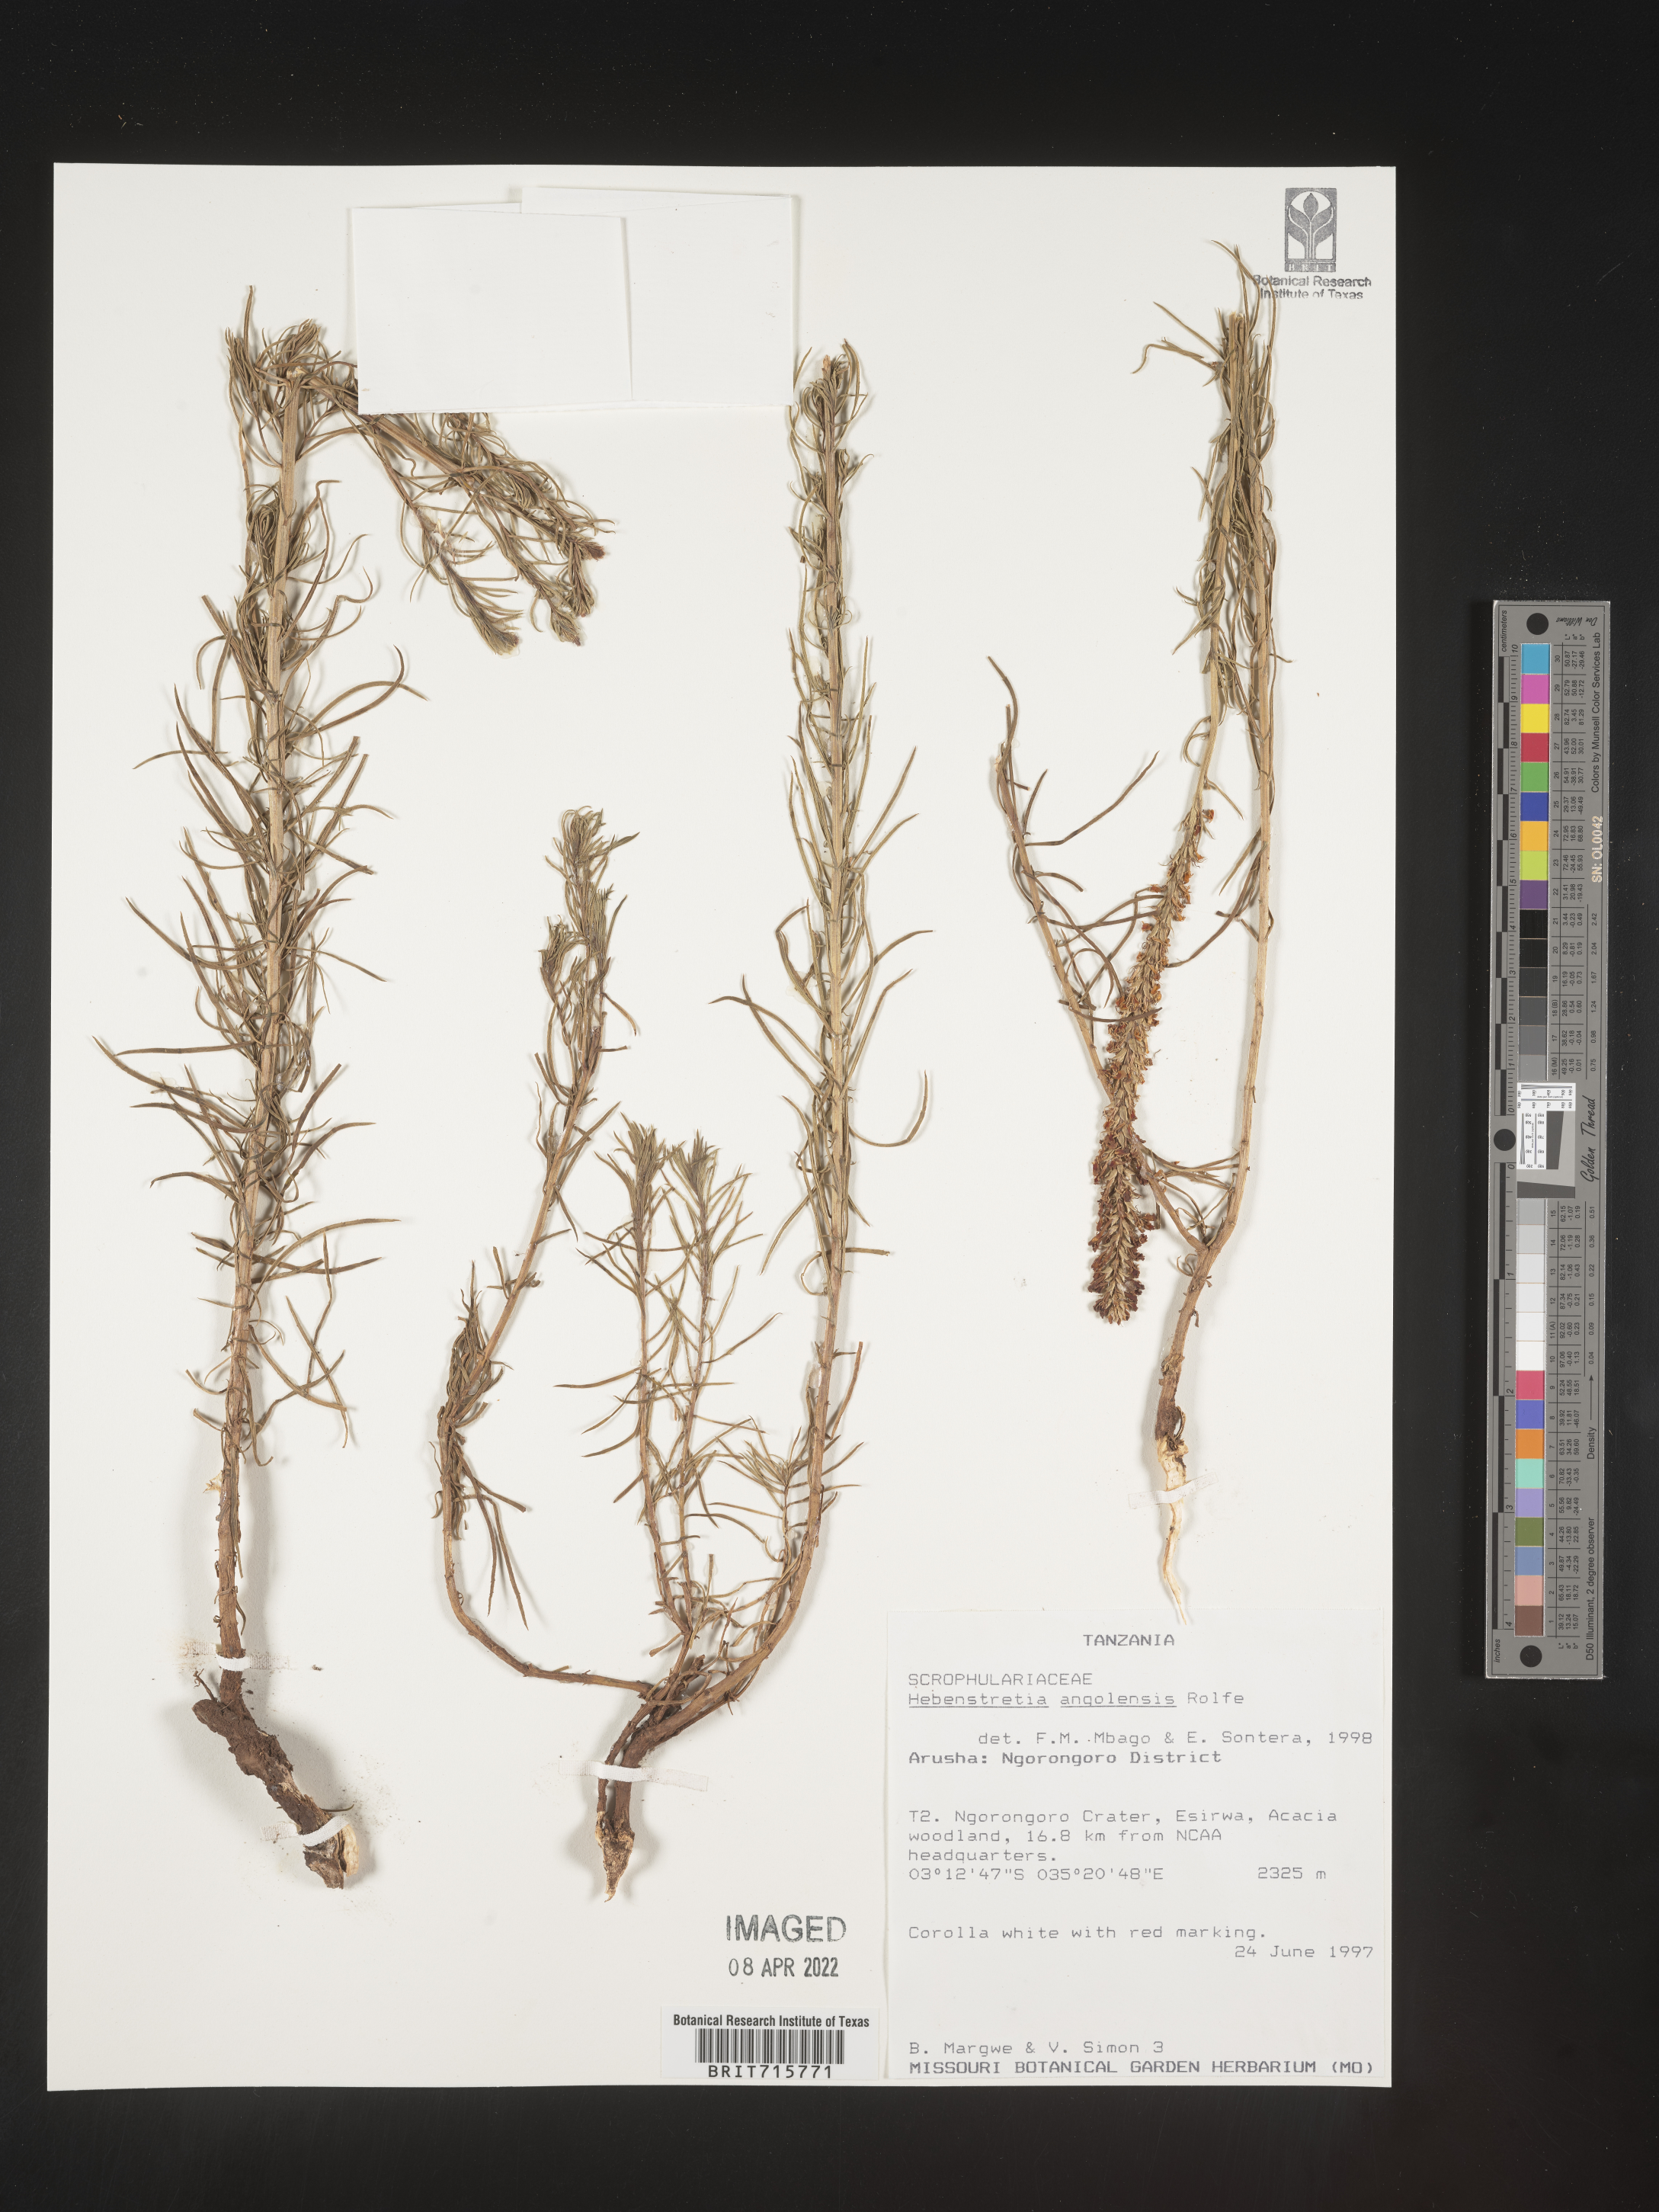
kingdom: Plantae
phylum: Tracheophyta
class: Magnoliopsida
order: Lamiales
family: Scrophulariaceae
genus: Hebenstretia
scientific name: Hebenstretia
